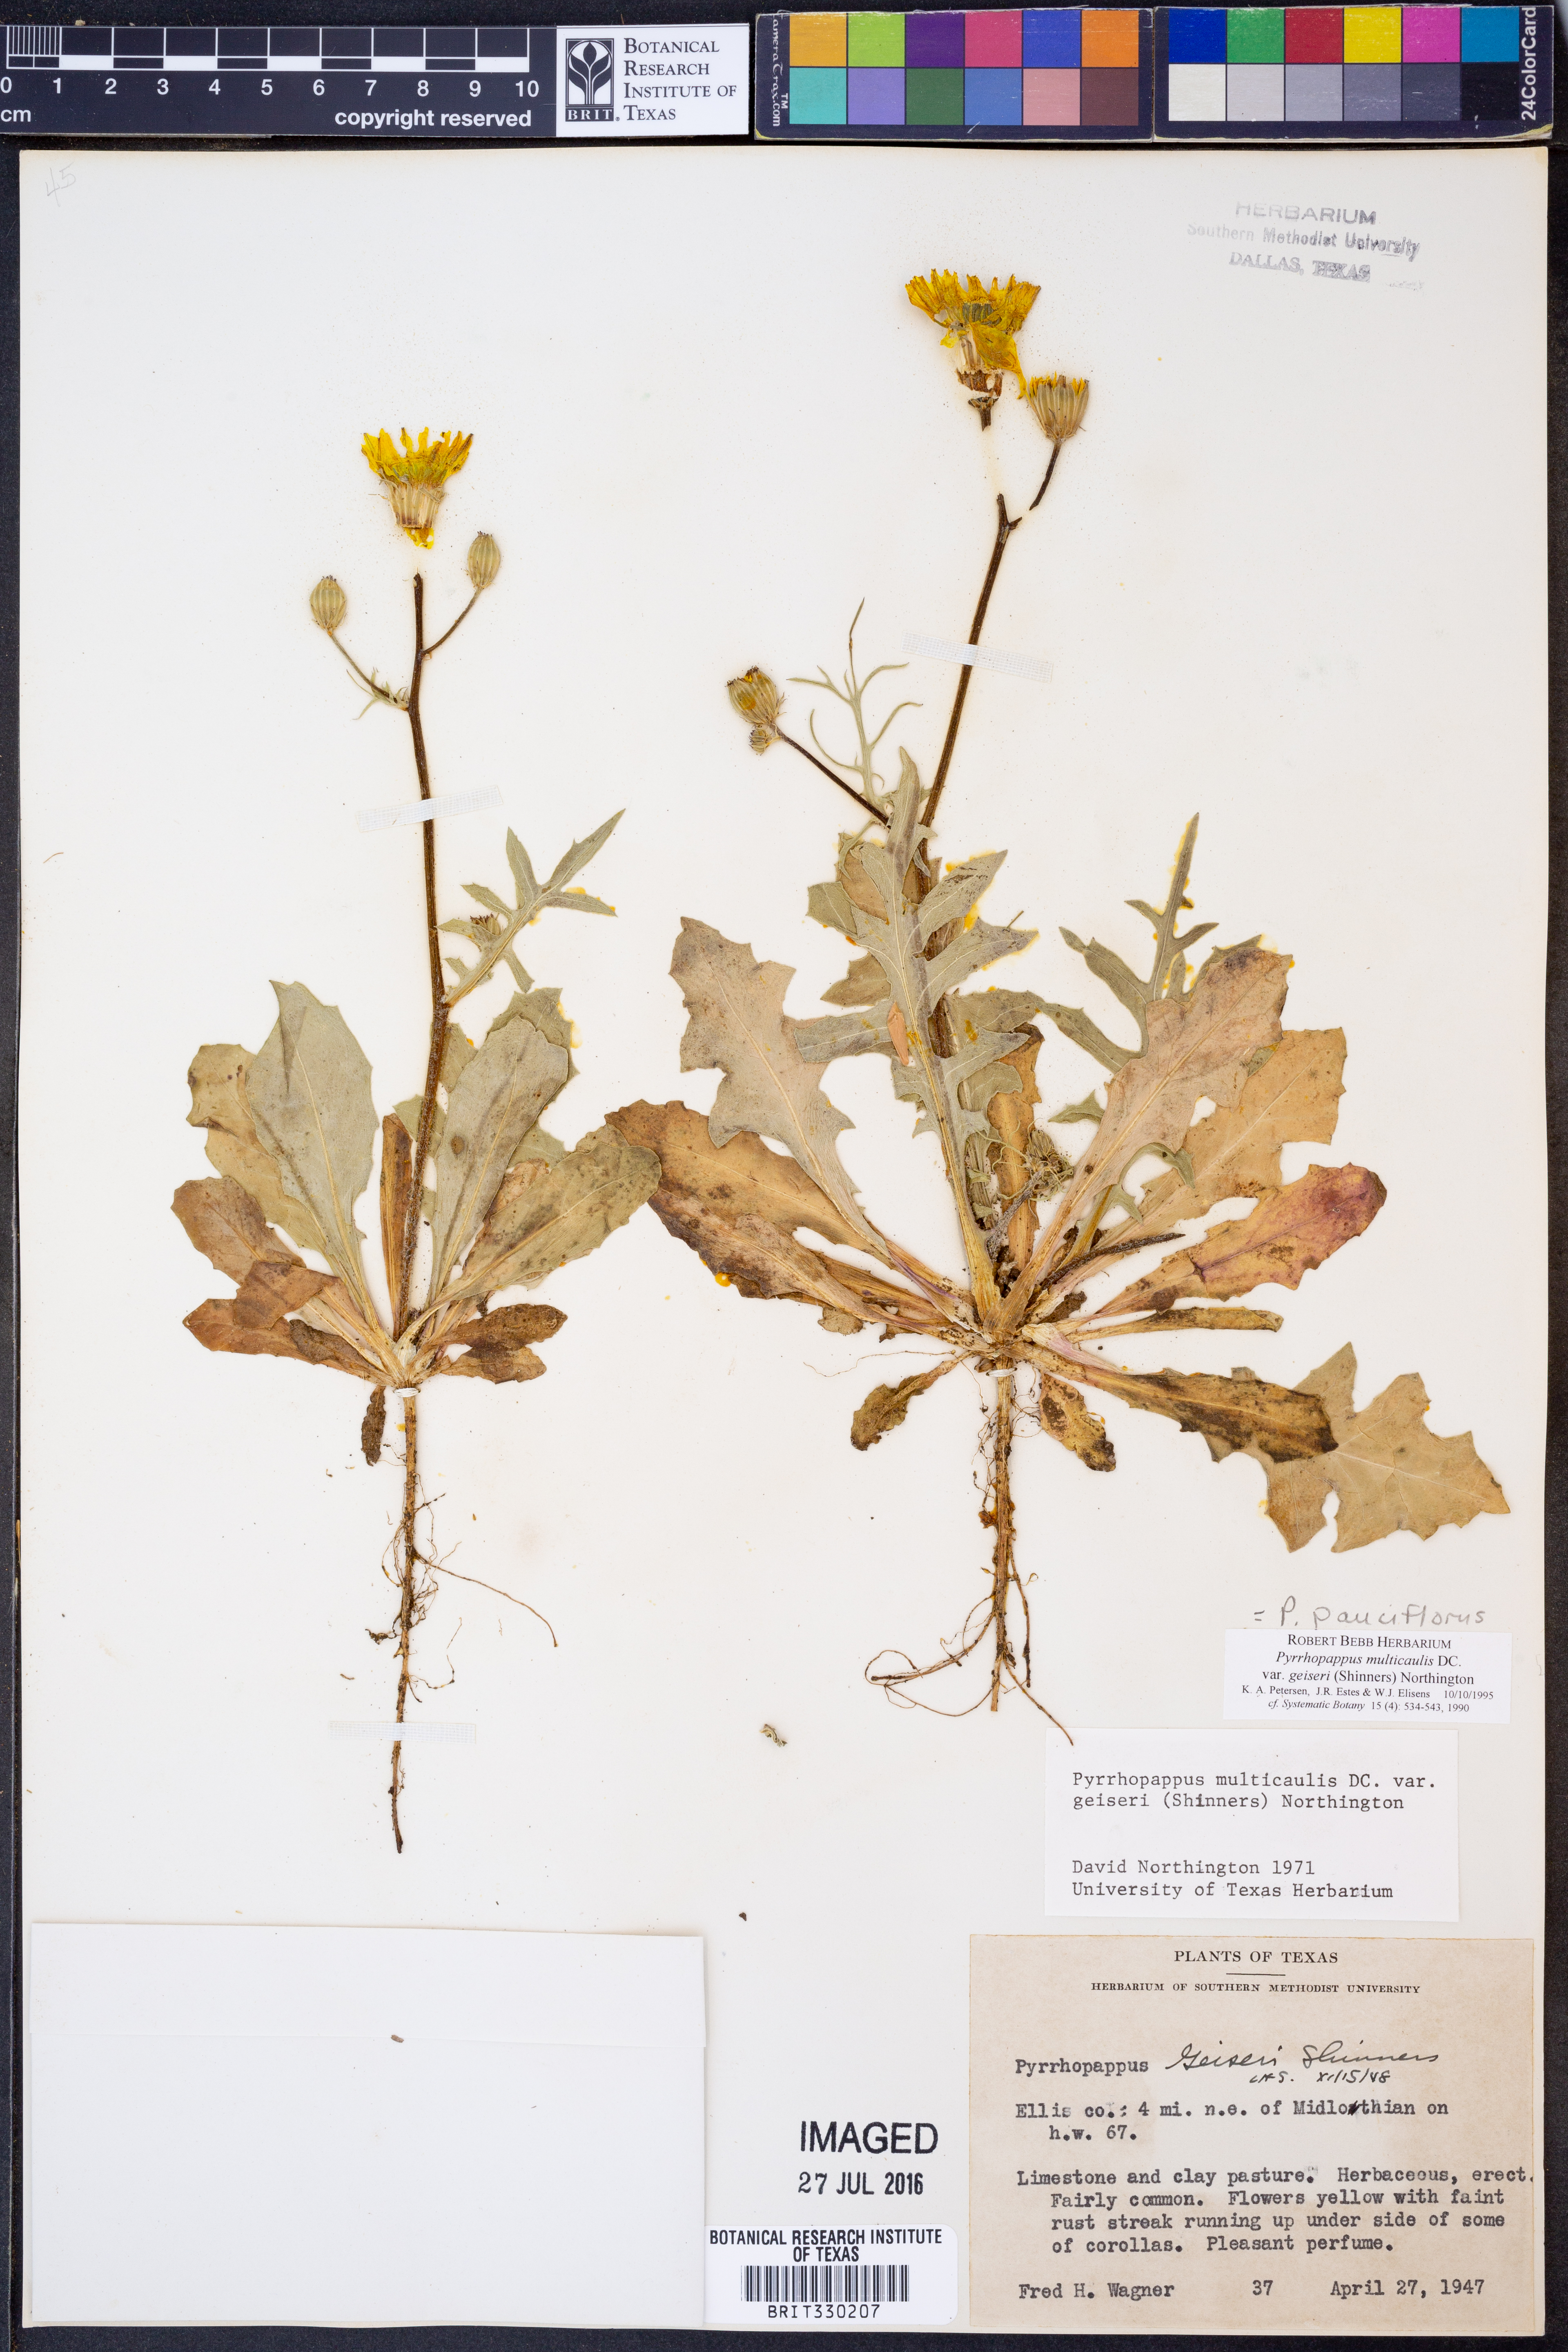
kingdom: Plantae
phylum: Tracheophyta
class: Magnoliopsida
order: Asterales
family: Asteraceae
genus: Pyrrhopappus
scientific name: Pyrrhopappus pauciflorus
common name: Texas false dandelion
